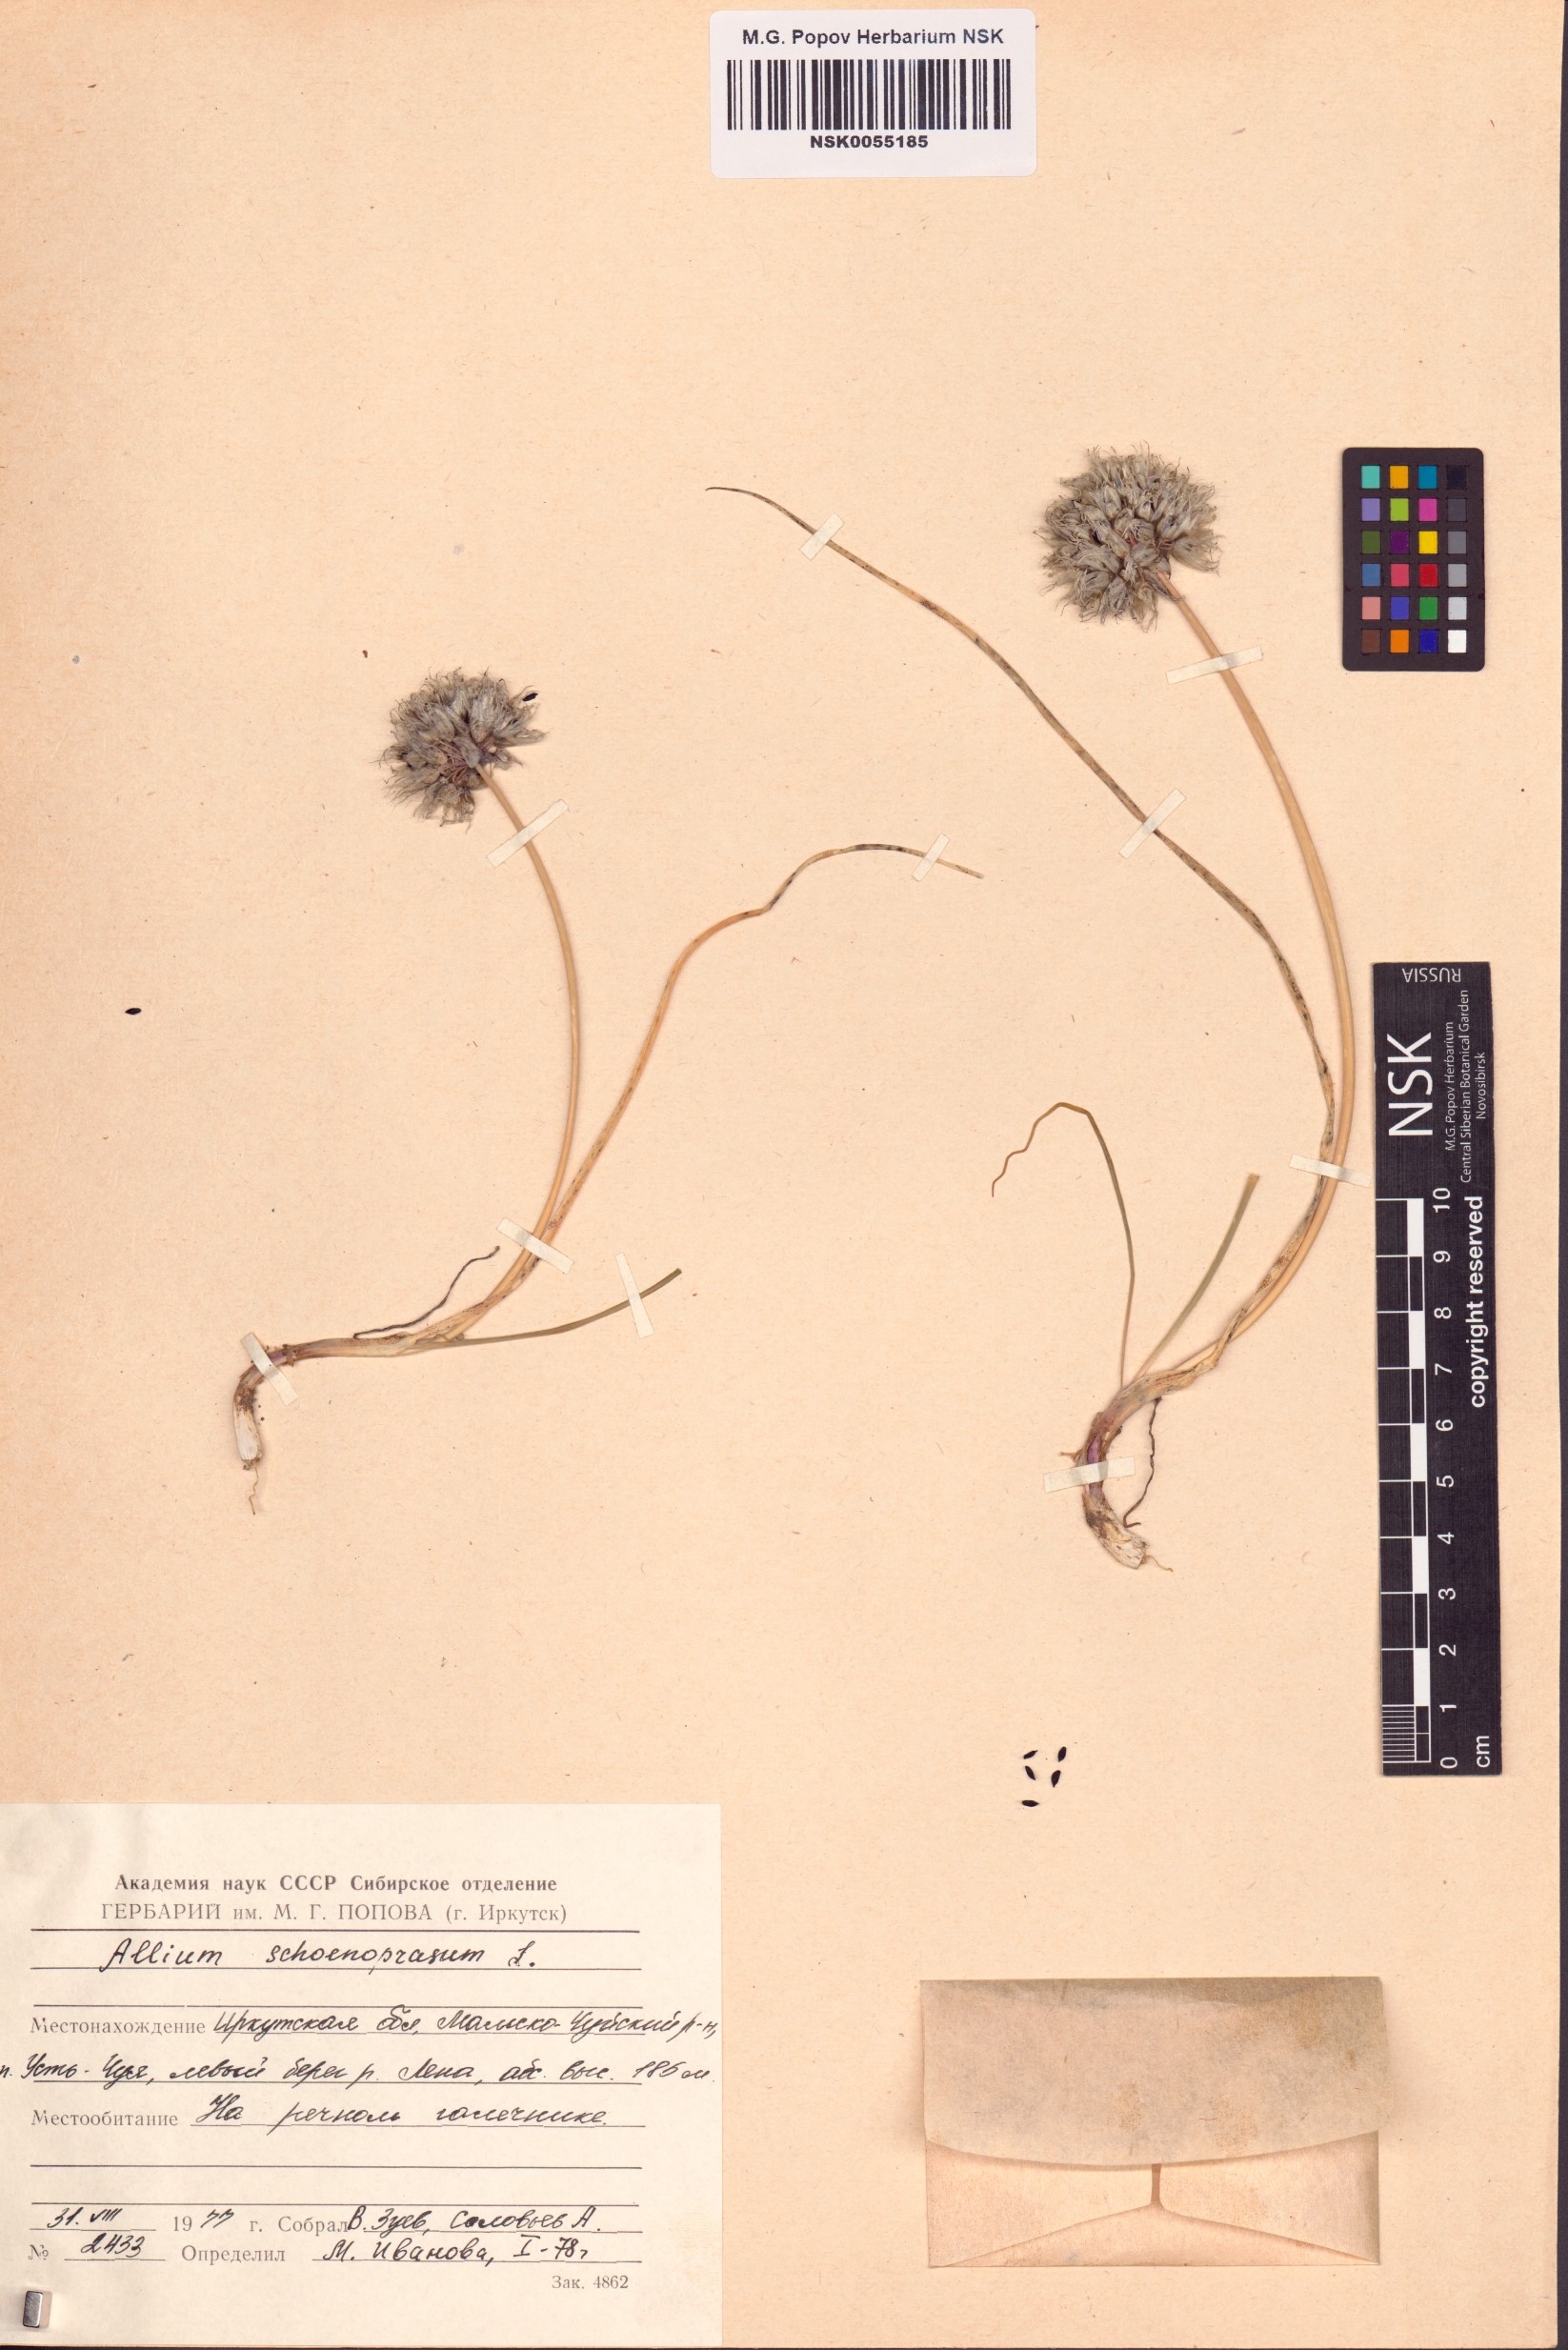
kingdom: Plantae
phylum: Tracheophyta
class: Liliopsida
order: Asparagales
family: Amaryllidaceae
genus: Allium
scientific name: Allium schoenoprasum
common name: Chives
